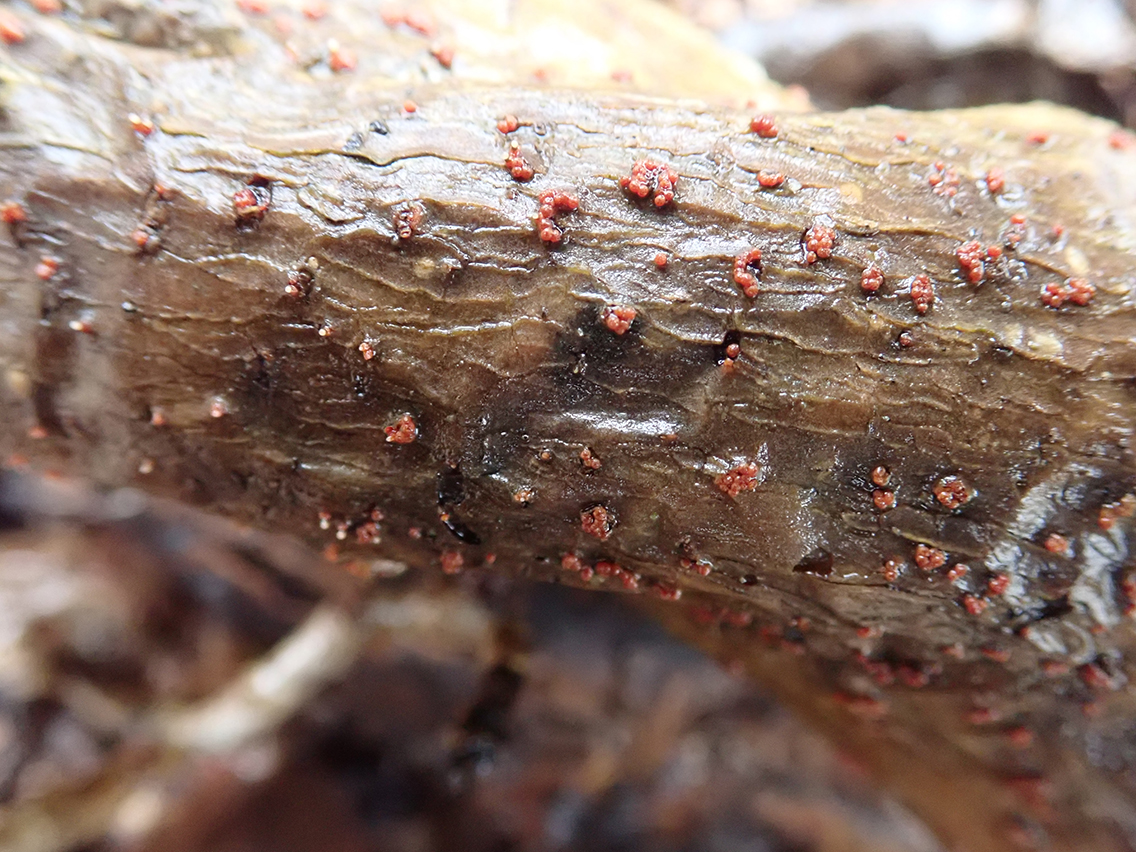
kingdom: Fungi
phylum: Ascomycota
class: Sordariomycetes
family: Thyridiaceae
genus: Thyronectria
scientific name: Thyronectria sinopica
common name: vedbend-cinnobersvamp
